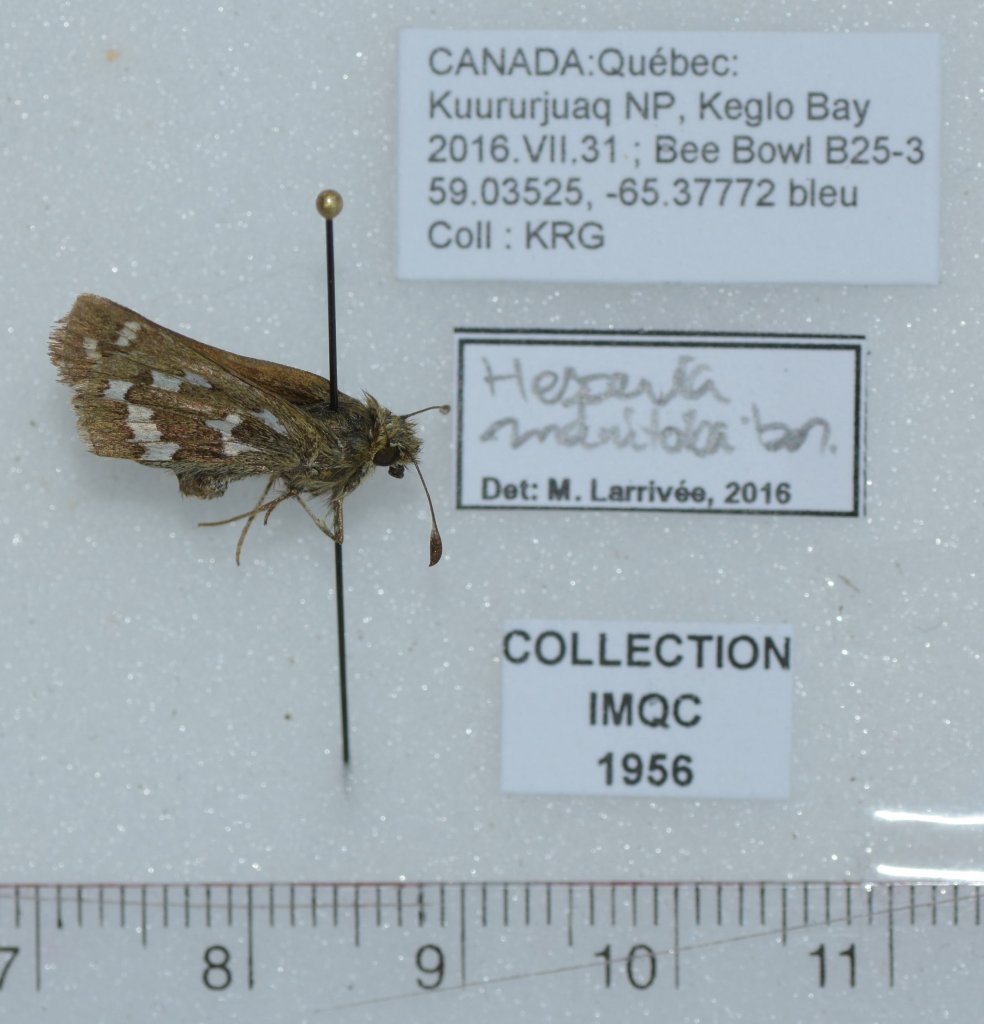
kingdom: Animalia
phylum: Arthropoda
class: Insecta
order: Lepidoptera
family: Hesperiidae
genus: Hesperia
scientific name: Hesperia comma
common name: Common Branded Skipper
